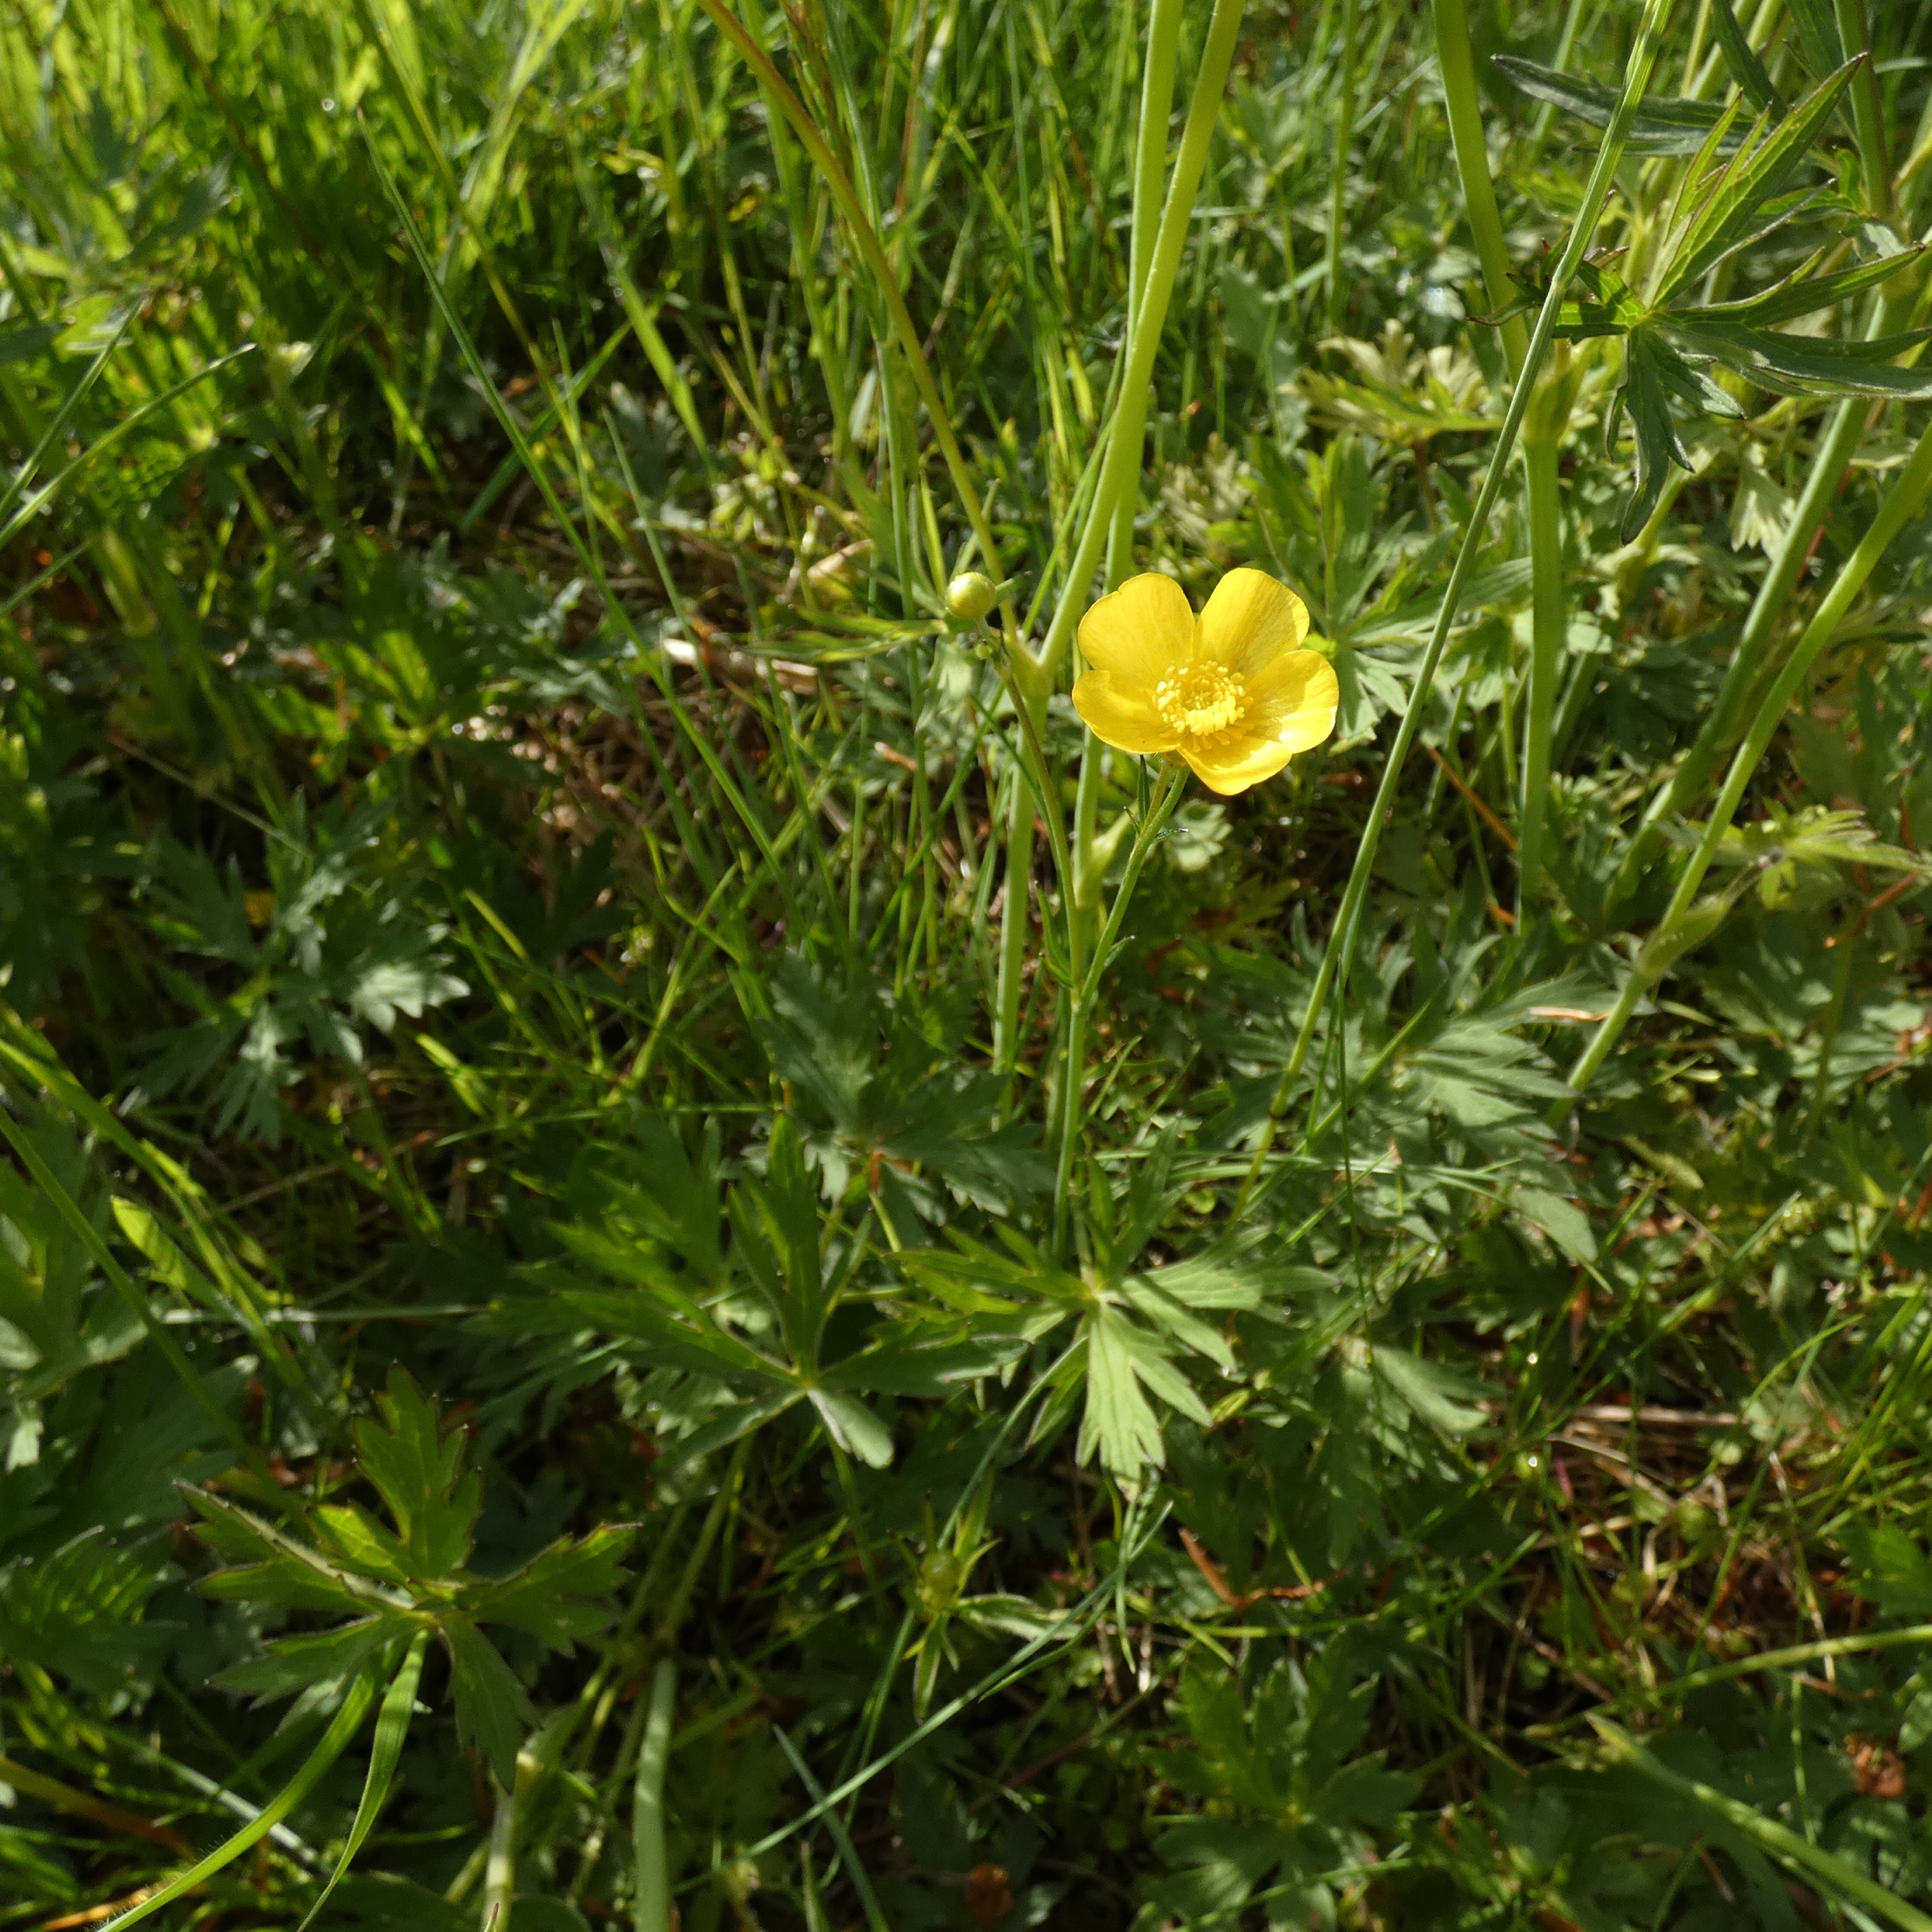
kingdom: Plantae
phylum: Tracheophyta
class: Magnoliopsida
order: Ranunculales
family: Ranunculaceae
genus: Ranunculus
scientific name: Ranunculus acris
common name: Bidende ranunkel
